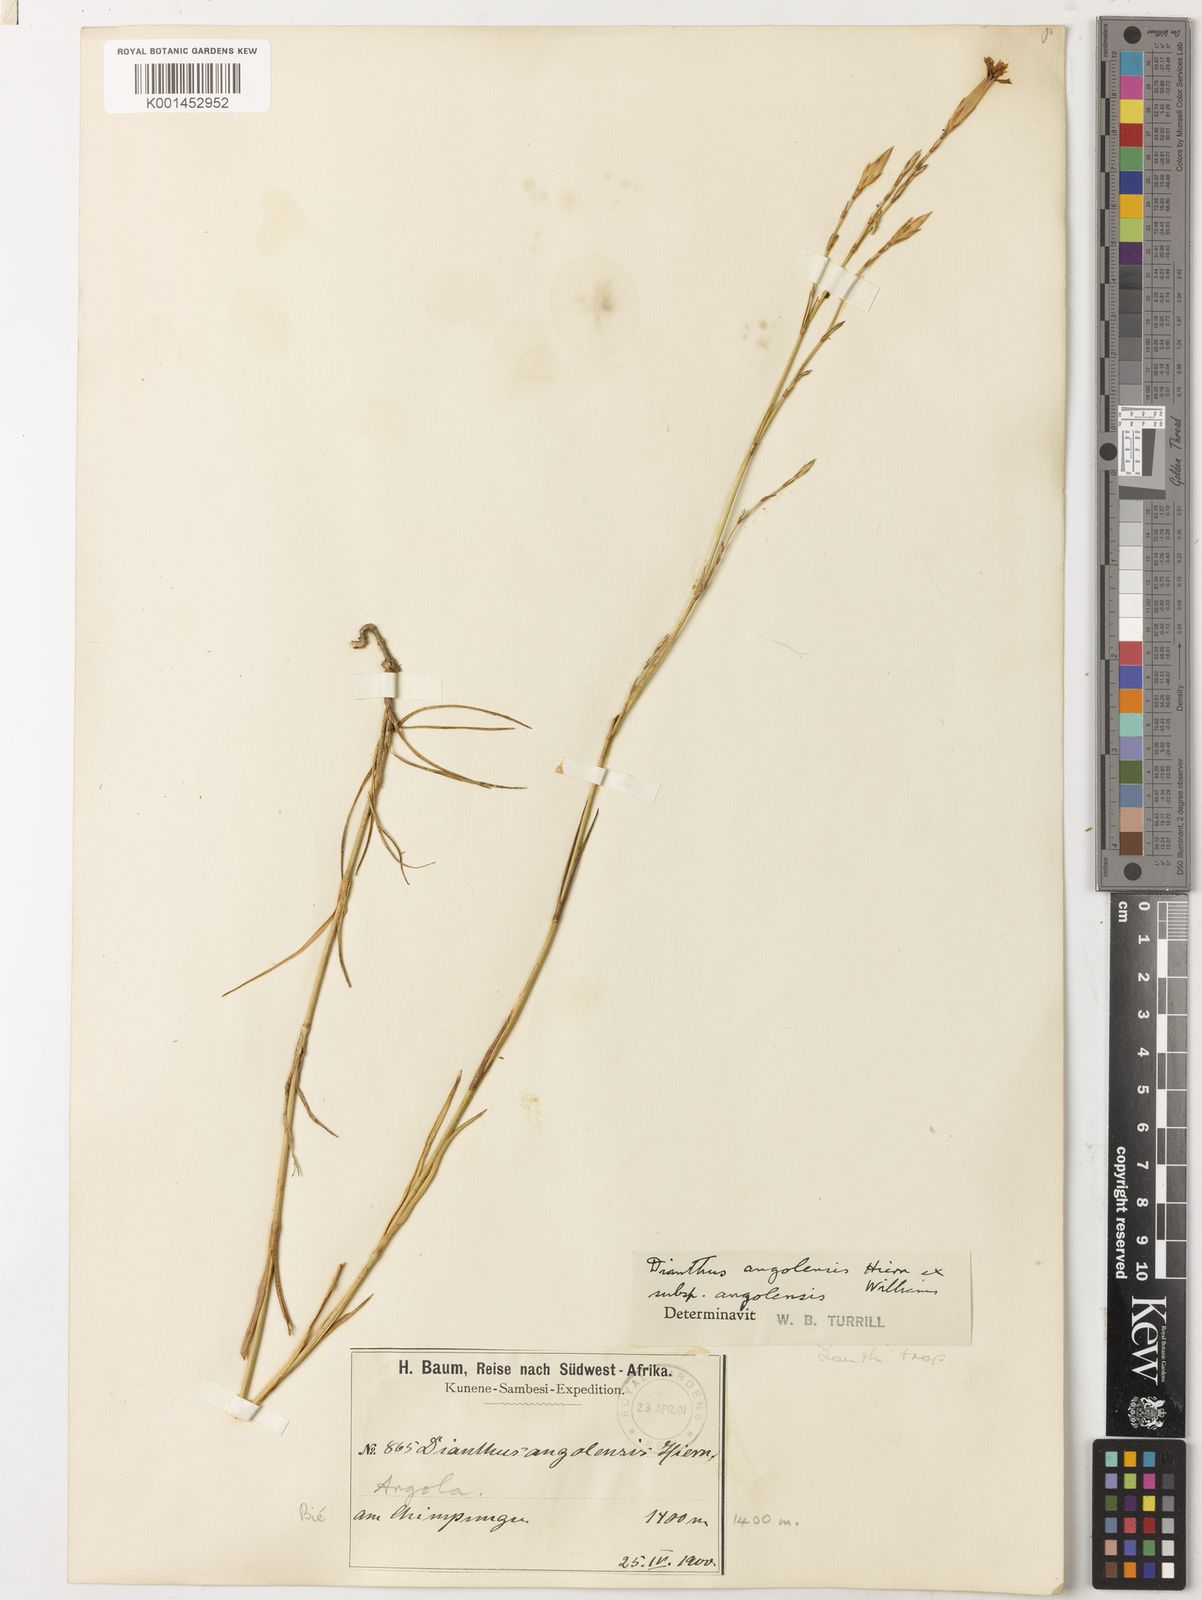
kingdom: Plantae
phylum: Tracheophyta
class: Magnoliopsida
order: Caryophyllales
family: Caryophyllaceae
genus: Dianthus
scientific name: Dianthus angolensis
